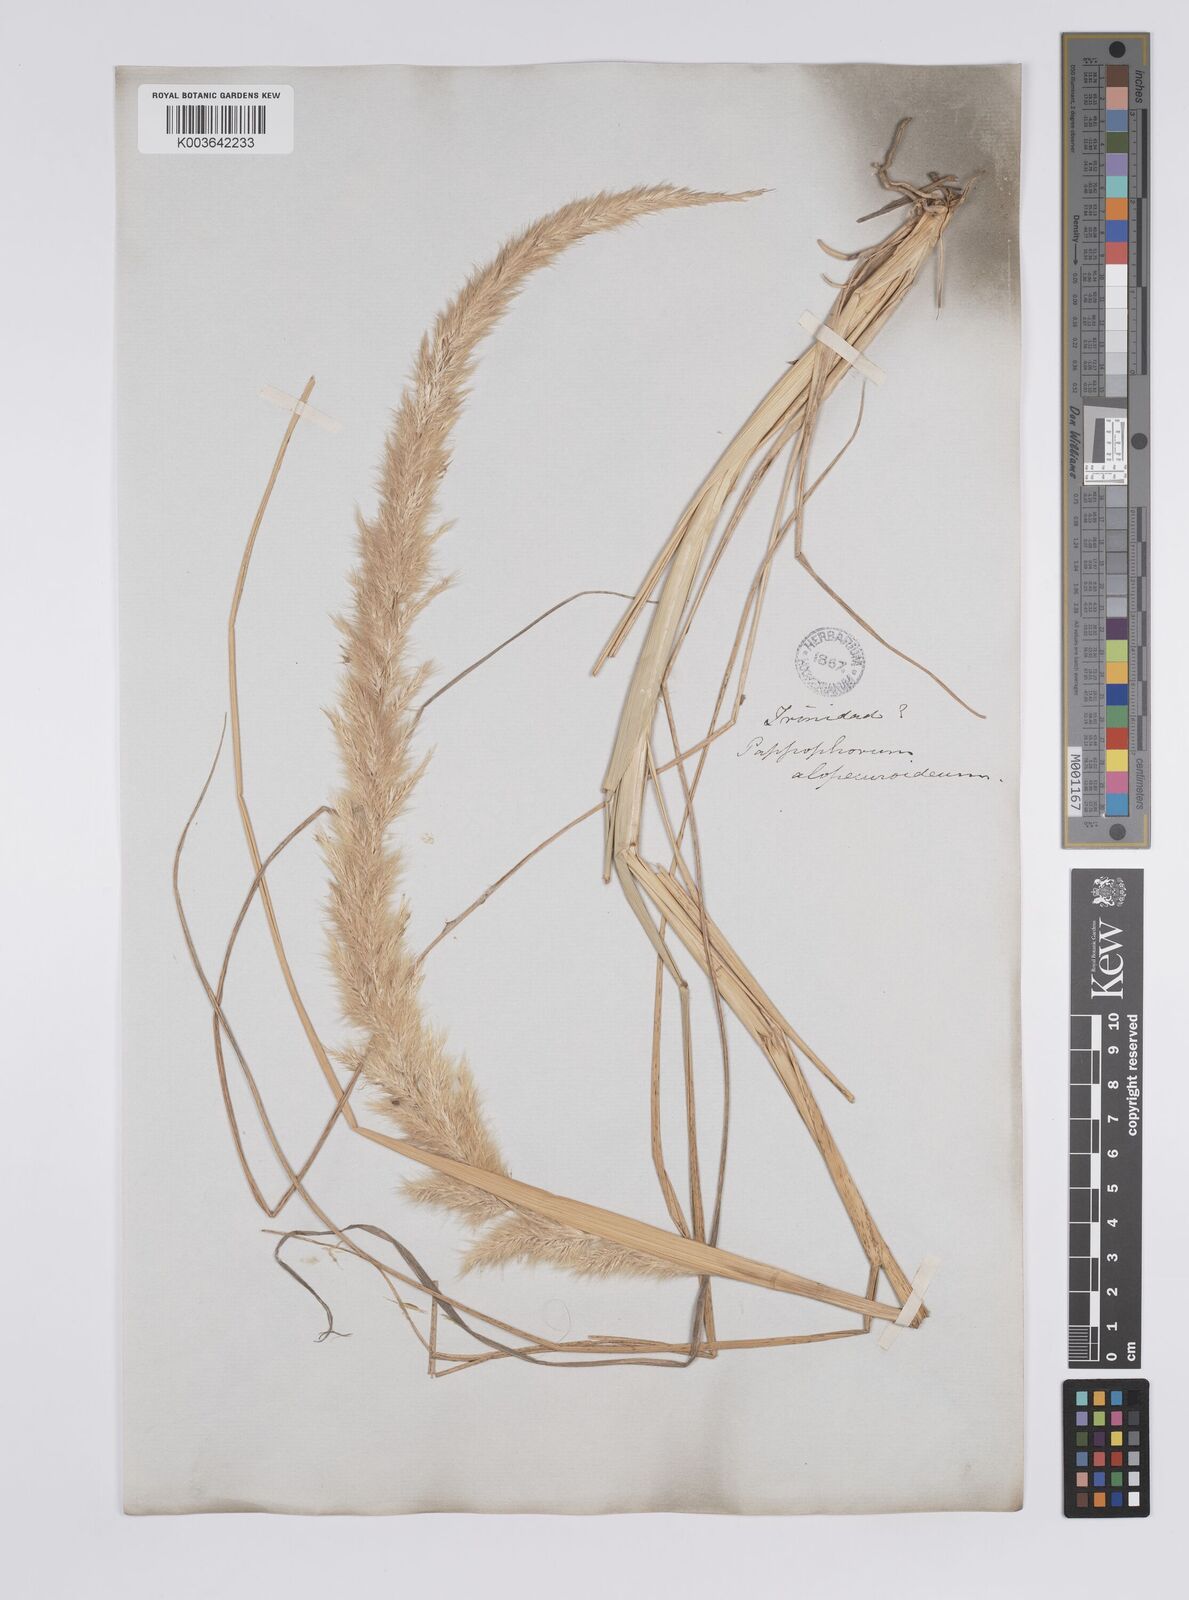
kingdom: Plantae
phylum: Tracheophyta
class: Liliopsida
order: Poales
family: Poaceae
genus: Pappophorum
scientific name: Pappophorum pappiferum
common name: Crabgrass
